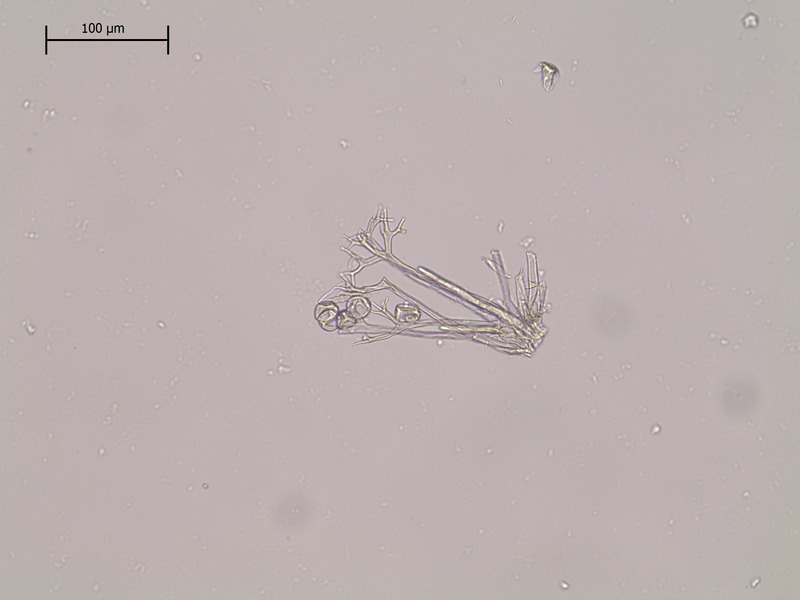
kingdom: Chromista
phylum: Oomycota
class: Peronosporea
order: Peronosporales
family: Peronosporaceae
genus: Plasmopara
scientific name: Plasmopara peucedani
